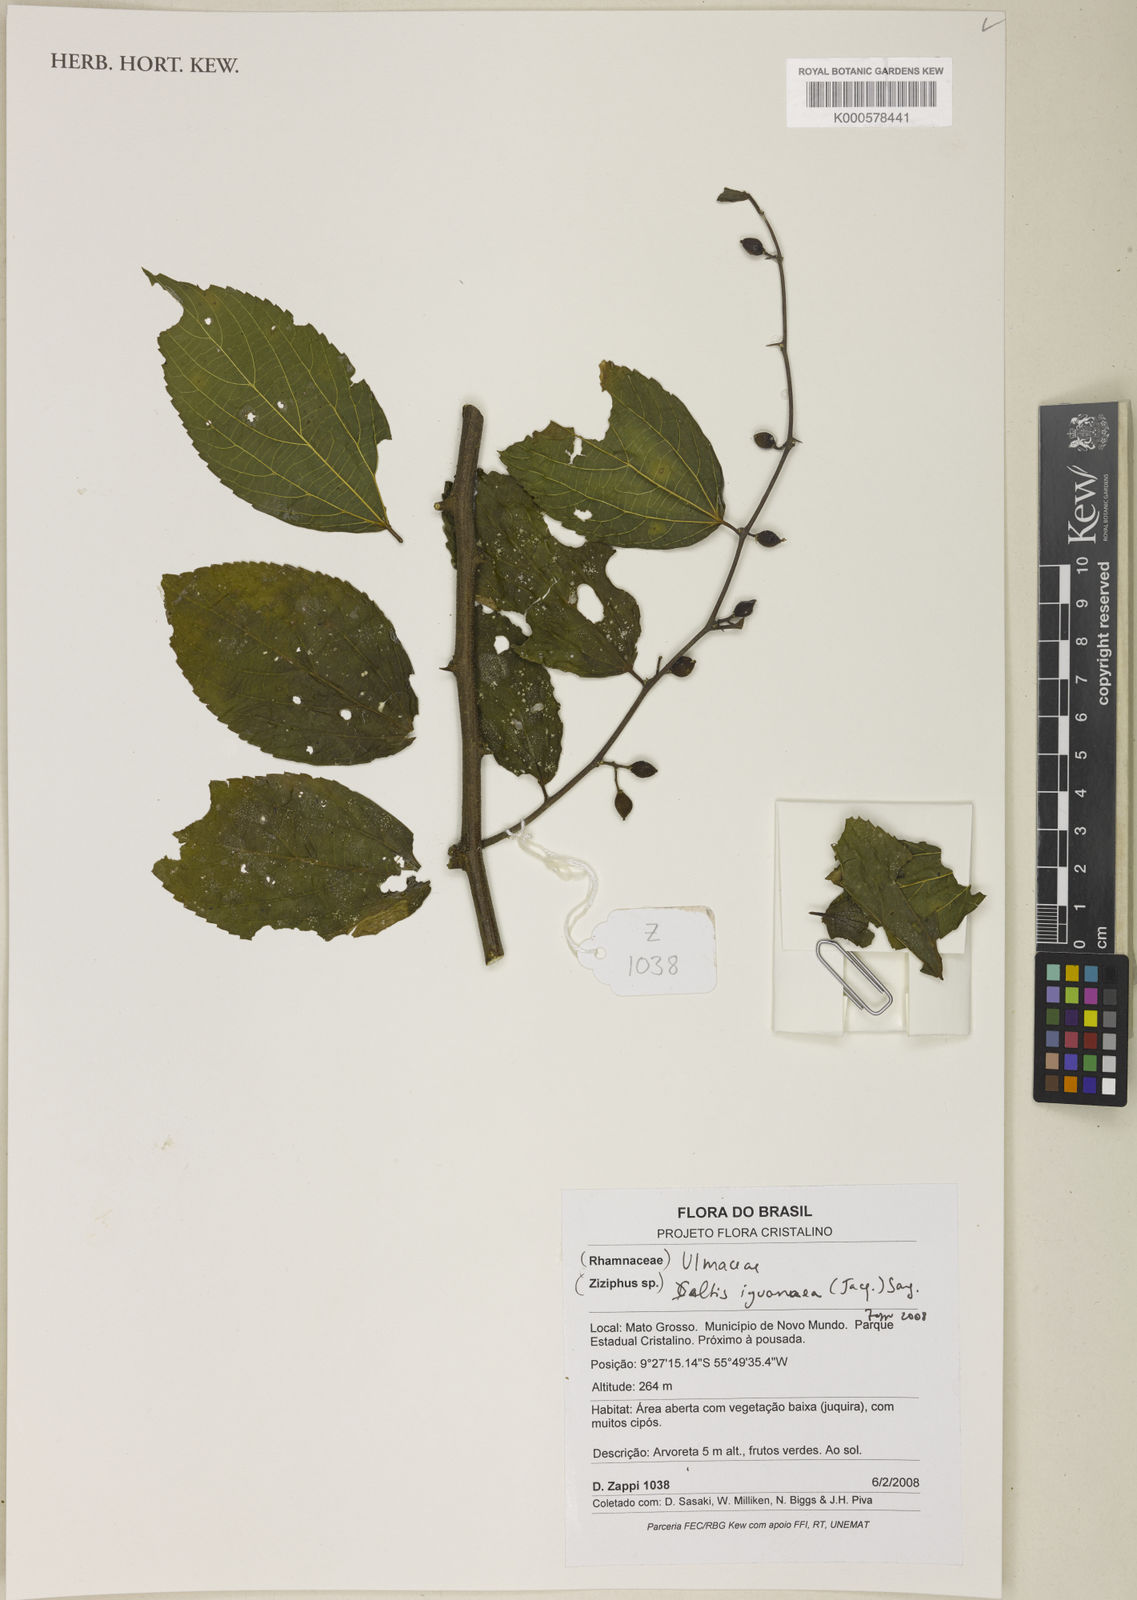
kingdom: Plantae
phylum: Tracheophyta
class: Magnoliopsida
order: Rosales
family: Cannabaceae
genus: Celtis
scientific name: Celtis iguanaea
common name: Iguana hackberry
